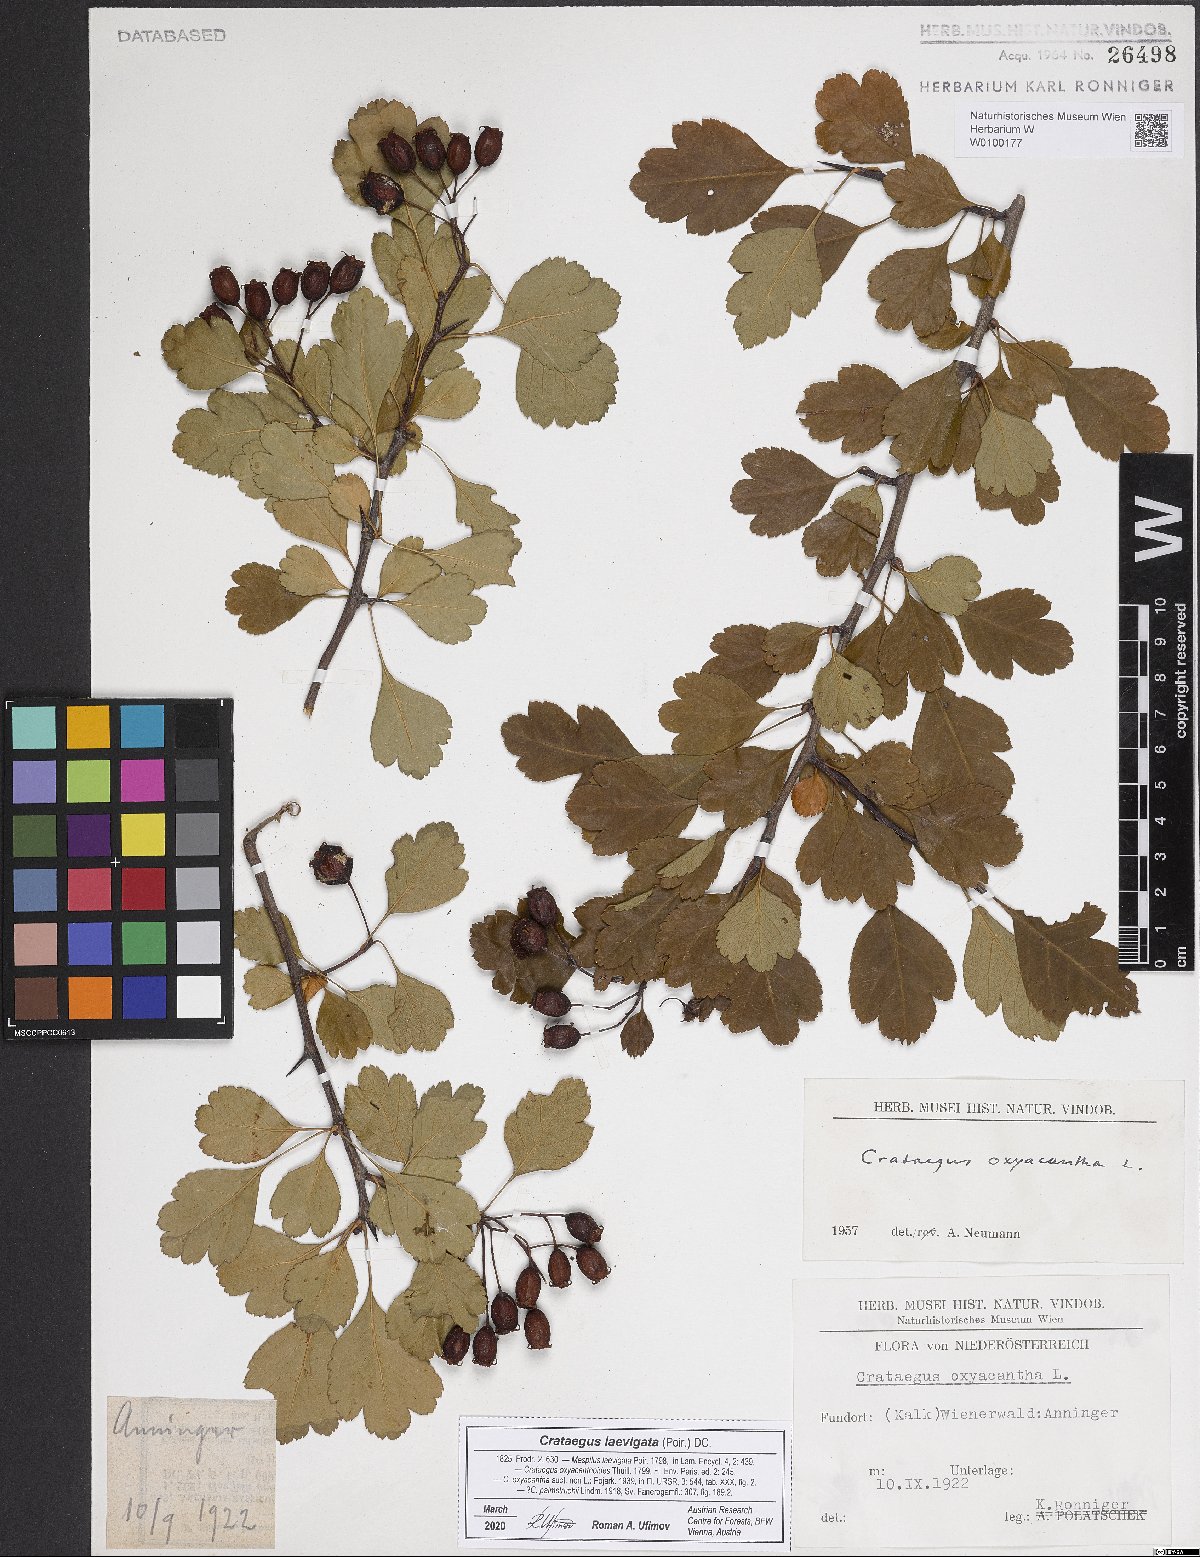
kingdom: Plantae
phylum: Tracheophyta
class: Magnoliopsida
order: Rosales
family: Rosaceae
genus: Crataegus
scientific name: Crataegus laevigata
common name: Midland hawthorn
